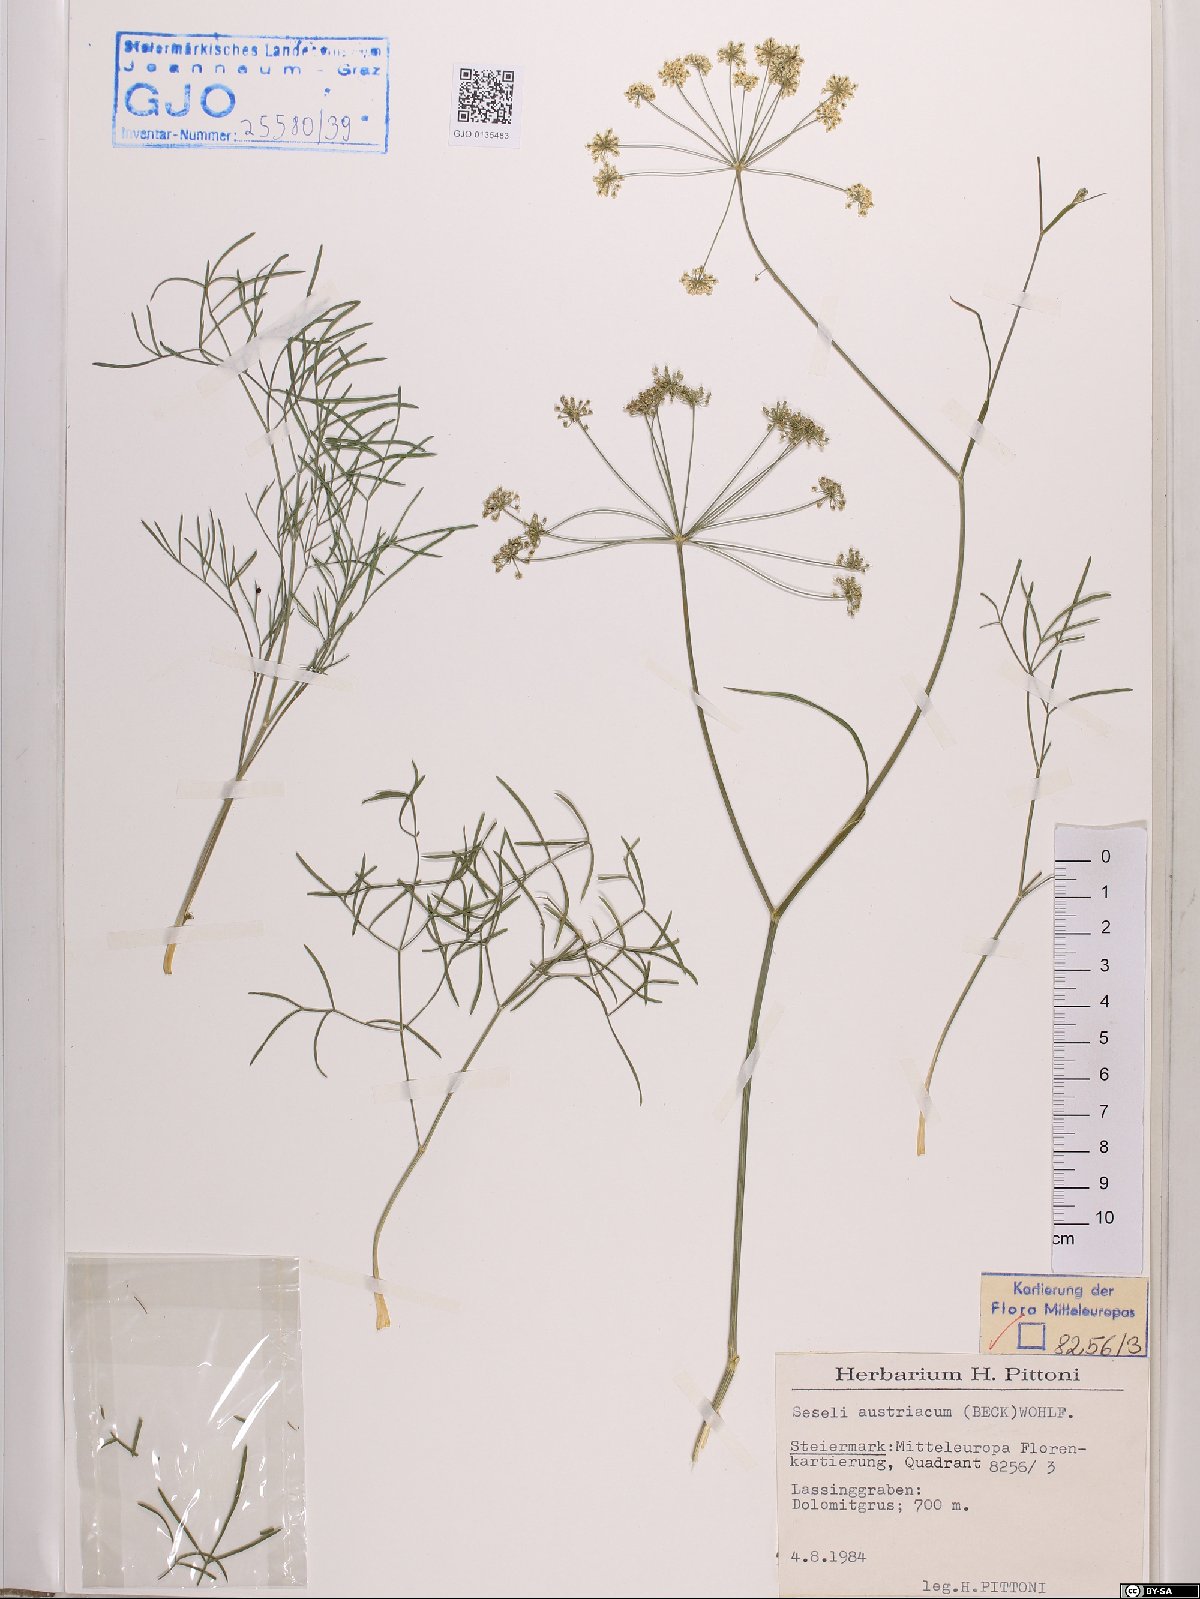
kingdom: Plantae
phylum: Tracheophyta
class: Magnoliopsida
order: Apiales
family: Apiaceae
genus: Seseli
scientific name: Seseli austriacum
